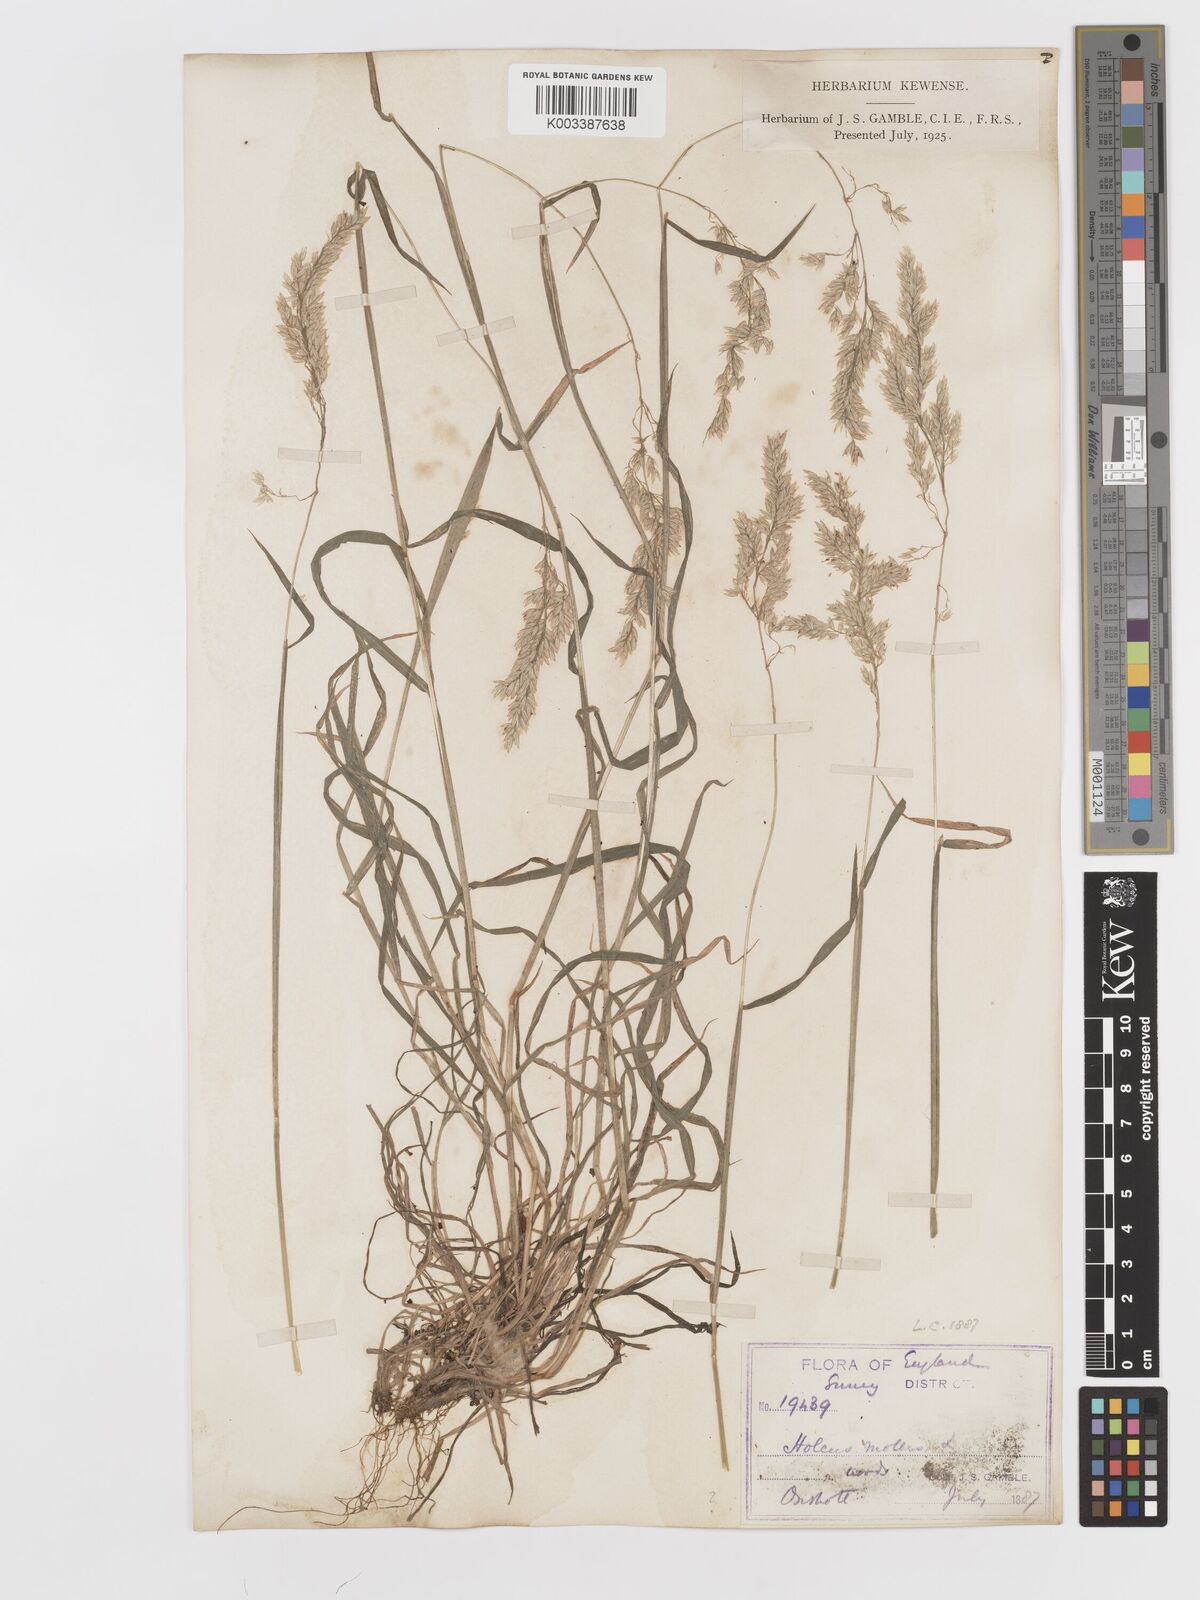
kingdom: Plantae
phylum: Tracheophyta
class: Liliopsida
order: Poales
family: Poaceae
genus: Holcus
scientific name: Holcus lanatus
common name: Yorkshire-fog
